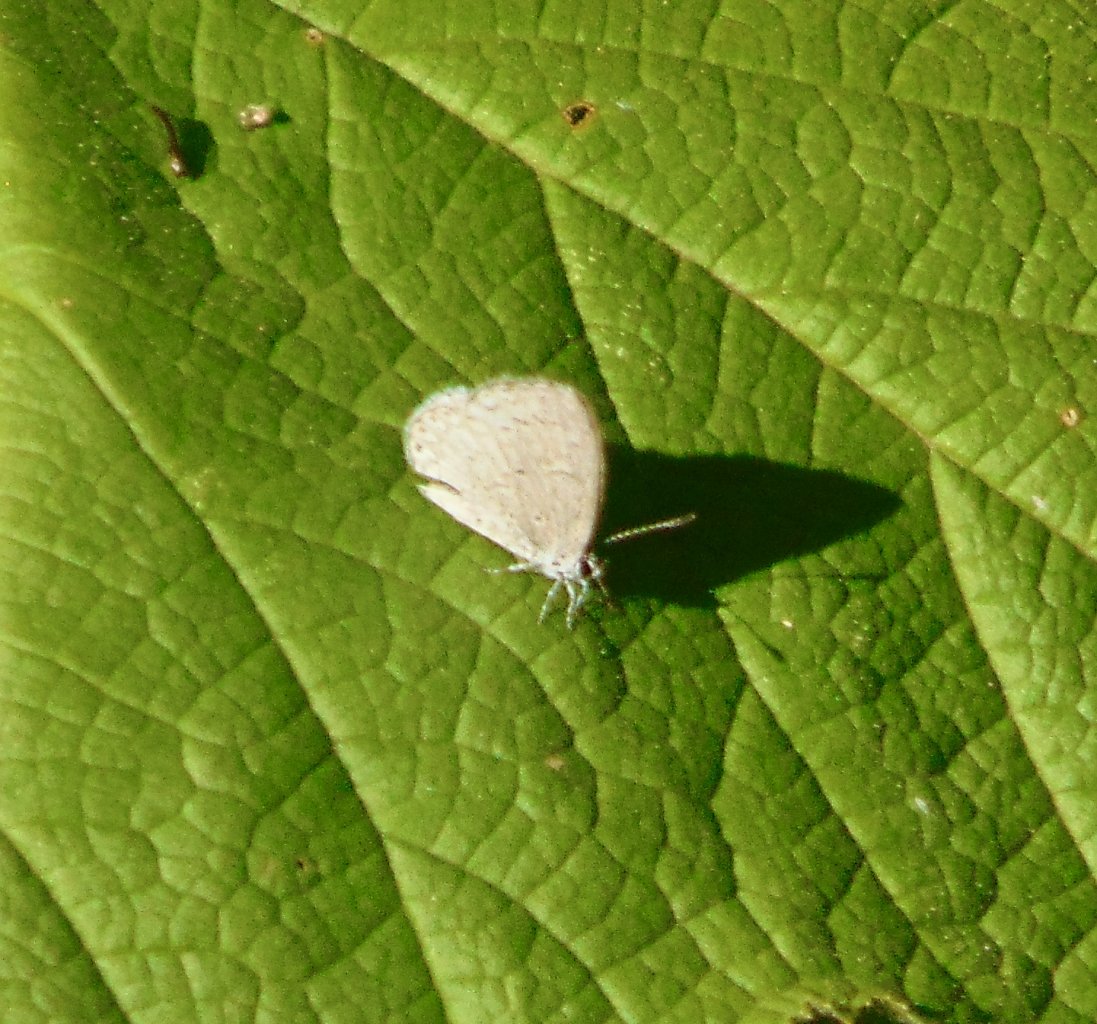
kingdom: Animalia
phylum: Arthropoda
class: Insecta
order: Lepidoptera
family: Lycaenidae
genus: Cyaniris
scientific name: Cyaniris neglecta
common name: Summer Azure
